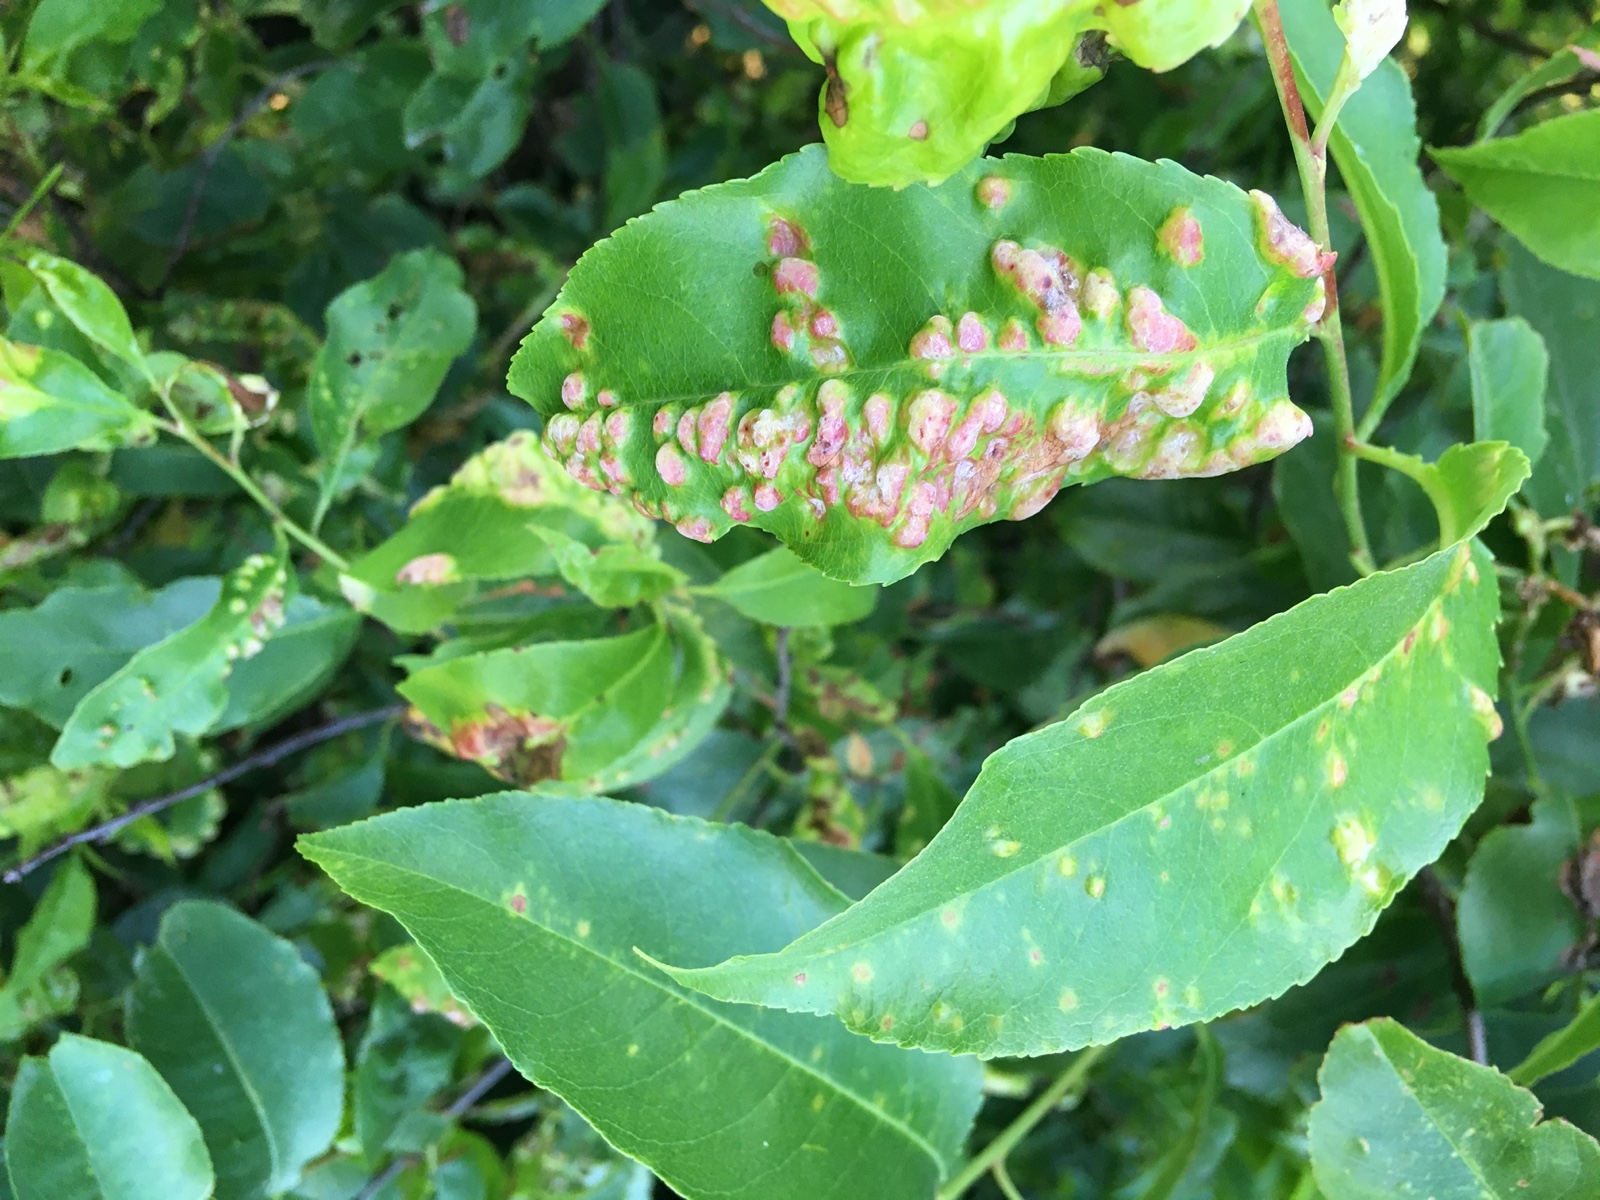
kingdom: Fungi
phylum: Ascomycota
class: Taphrinomycetes
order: Taphrinales
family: Taphrinaceae
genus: Taphrina
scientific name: Taphrina farlowii
